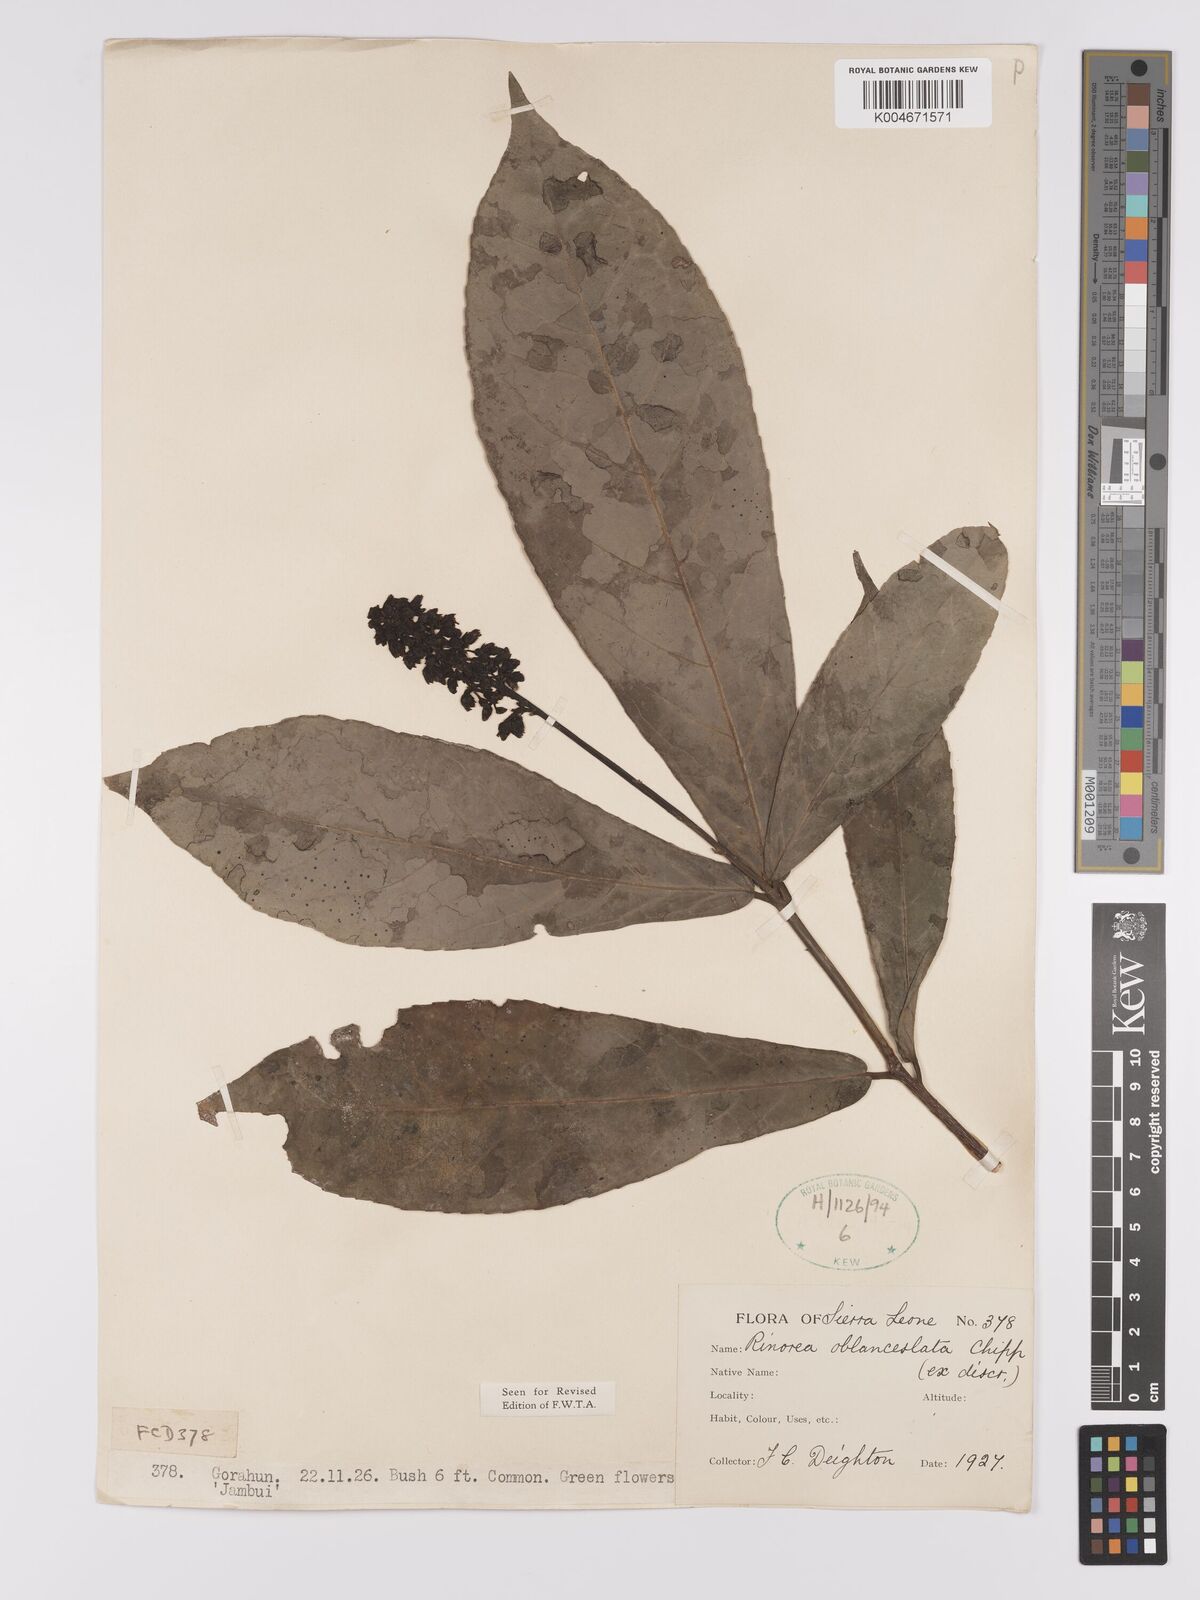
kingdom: Plantae
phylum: Tracheophyta
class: Magnoliopsida
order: Malpighiales
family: Violaceae
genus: Rinorea
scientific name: Rinorea oblanceolata
